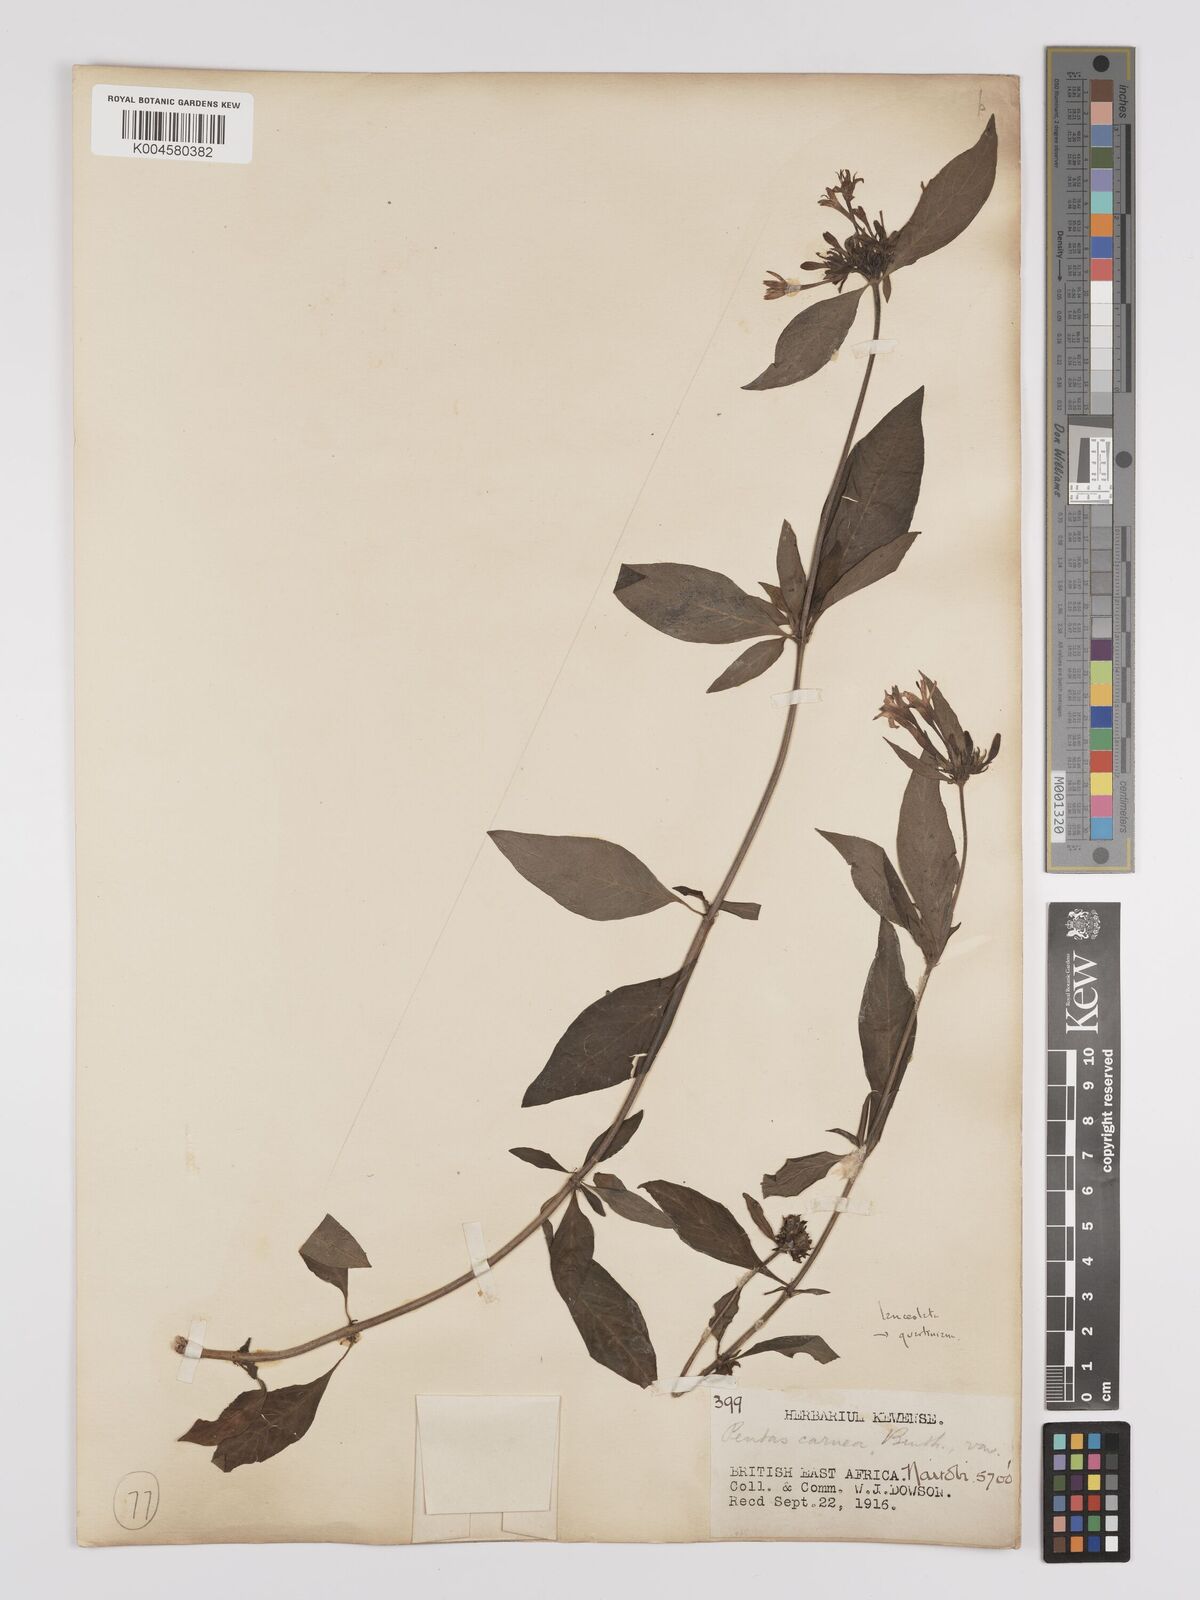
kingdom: Plantae
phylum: Tracheophyta
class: Magnoliopsida
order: Gentianales
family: Rubiaceae
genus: Pentas
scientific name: Pentas lanceolata
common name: Egyptian starcluster
